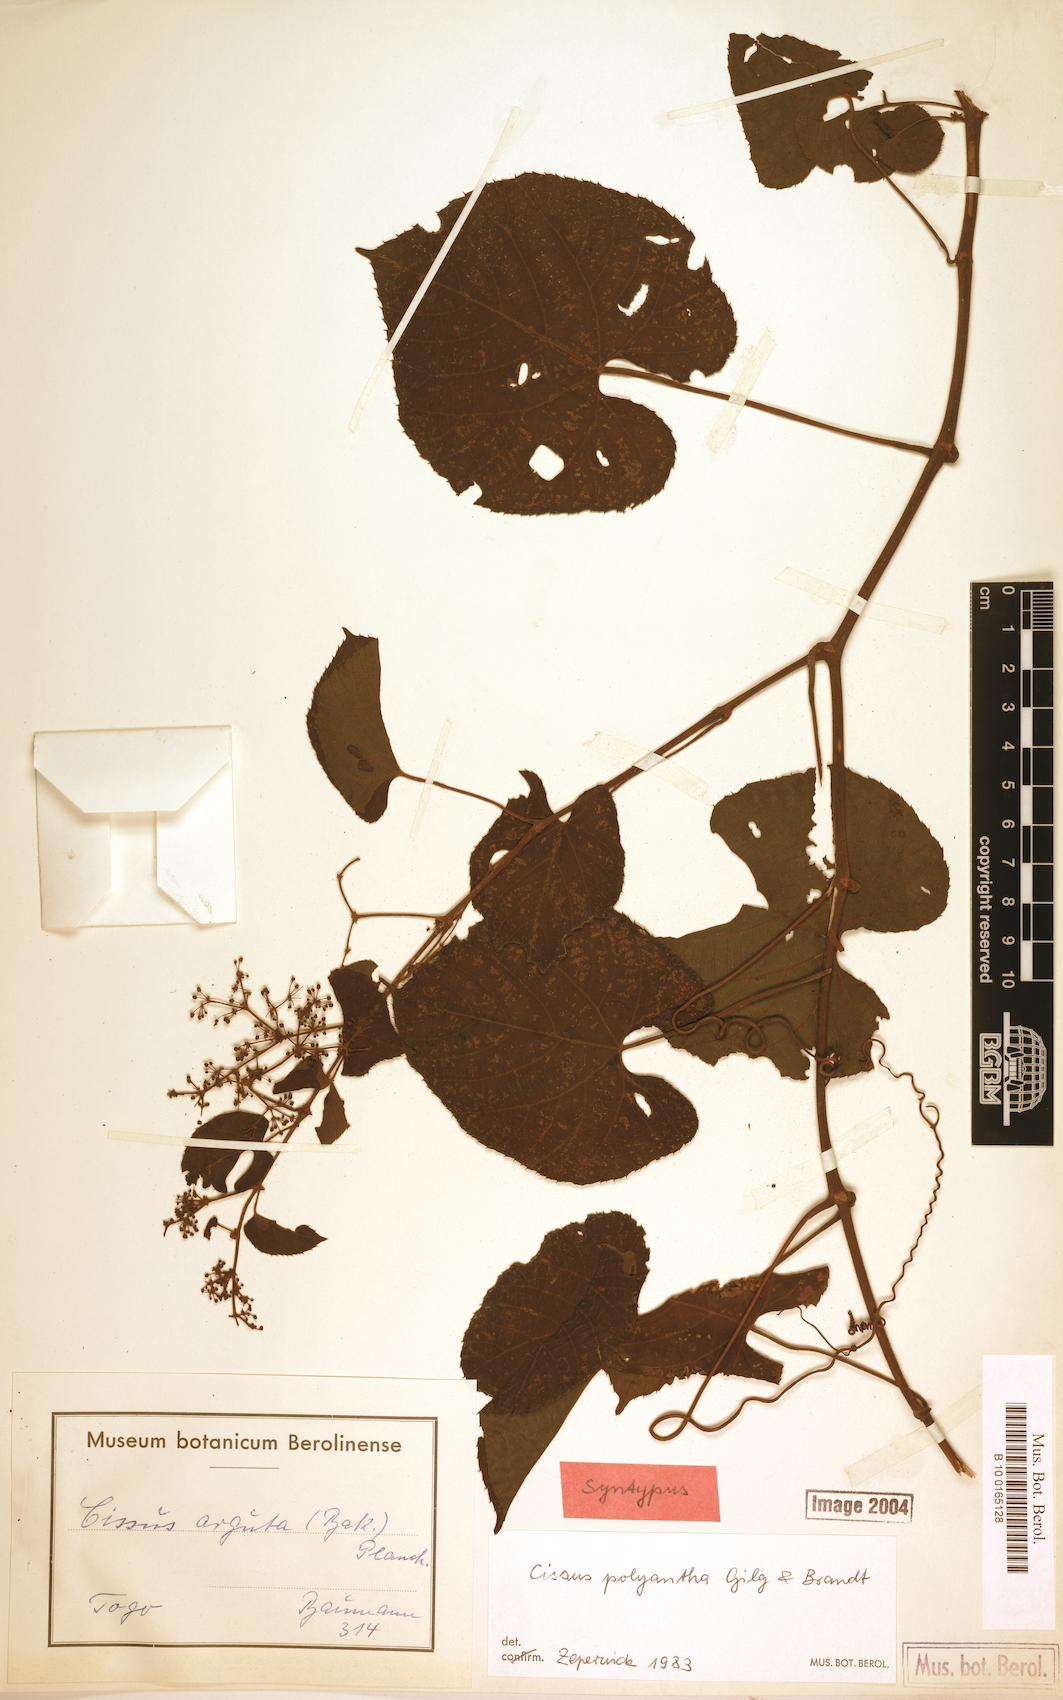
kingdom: Plantae
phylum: Tracheophyta
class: Magnoliopsida
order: Vitales
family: Vitaceae
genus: Cissus
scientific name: Cissus polyantha
